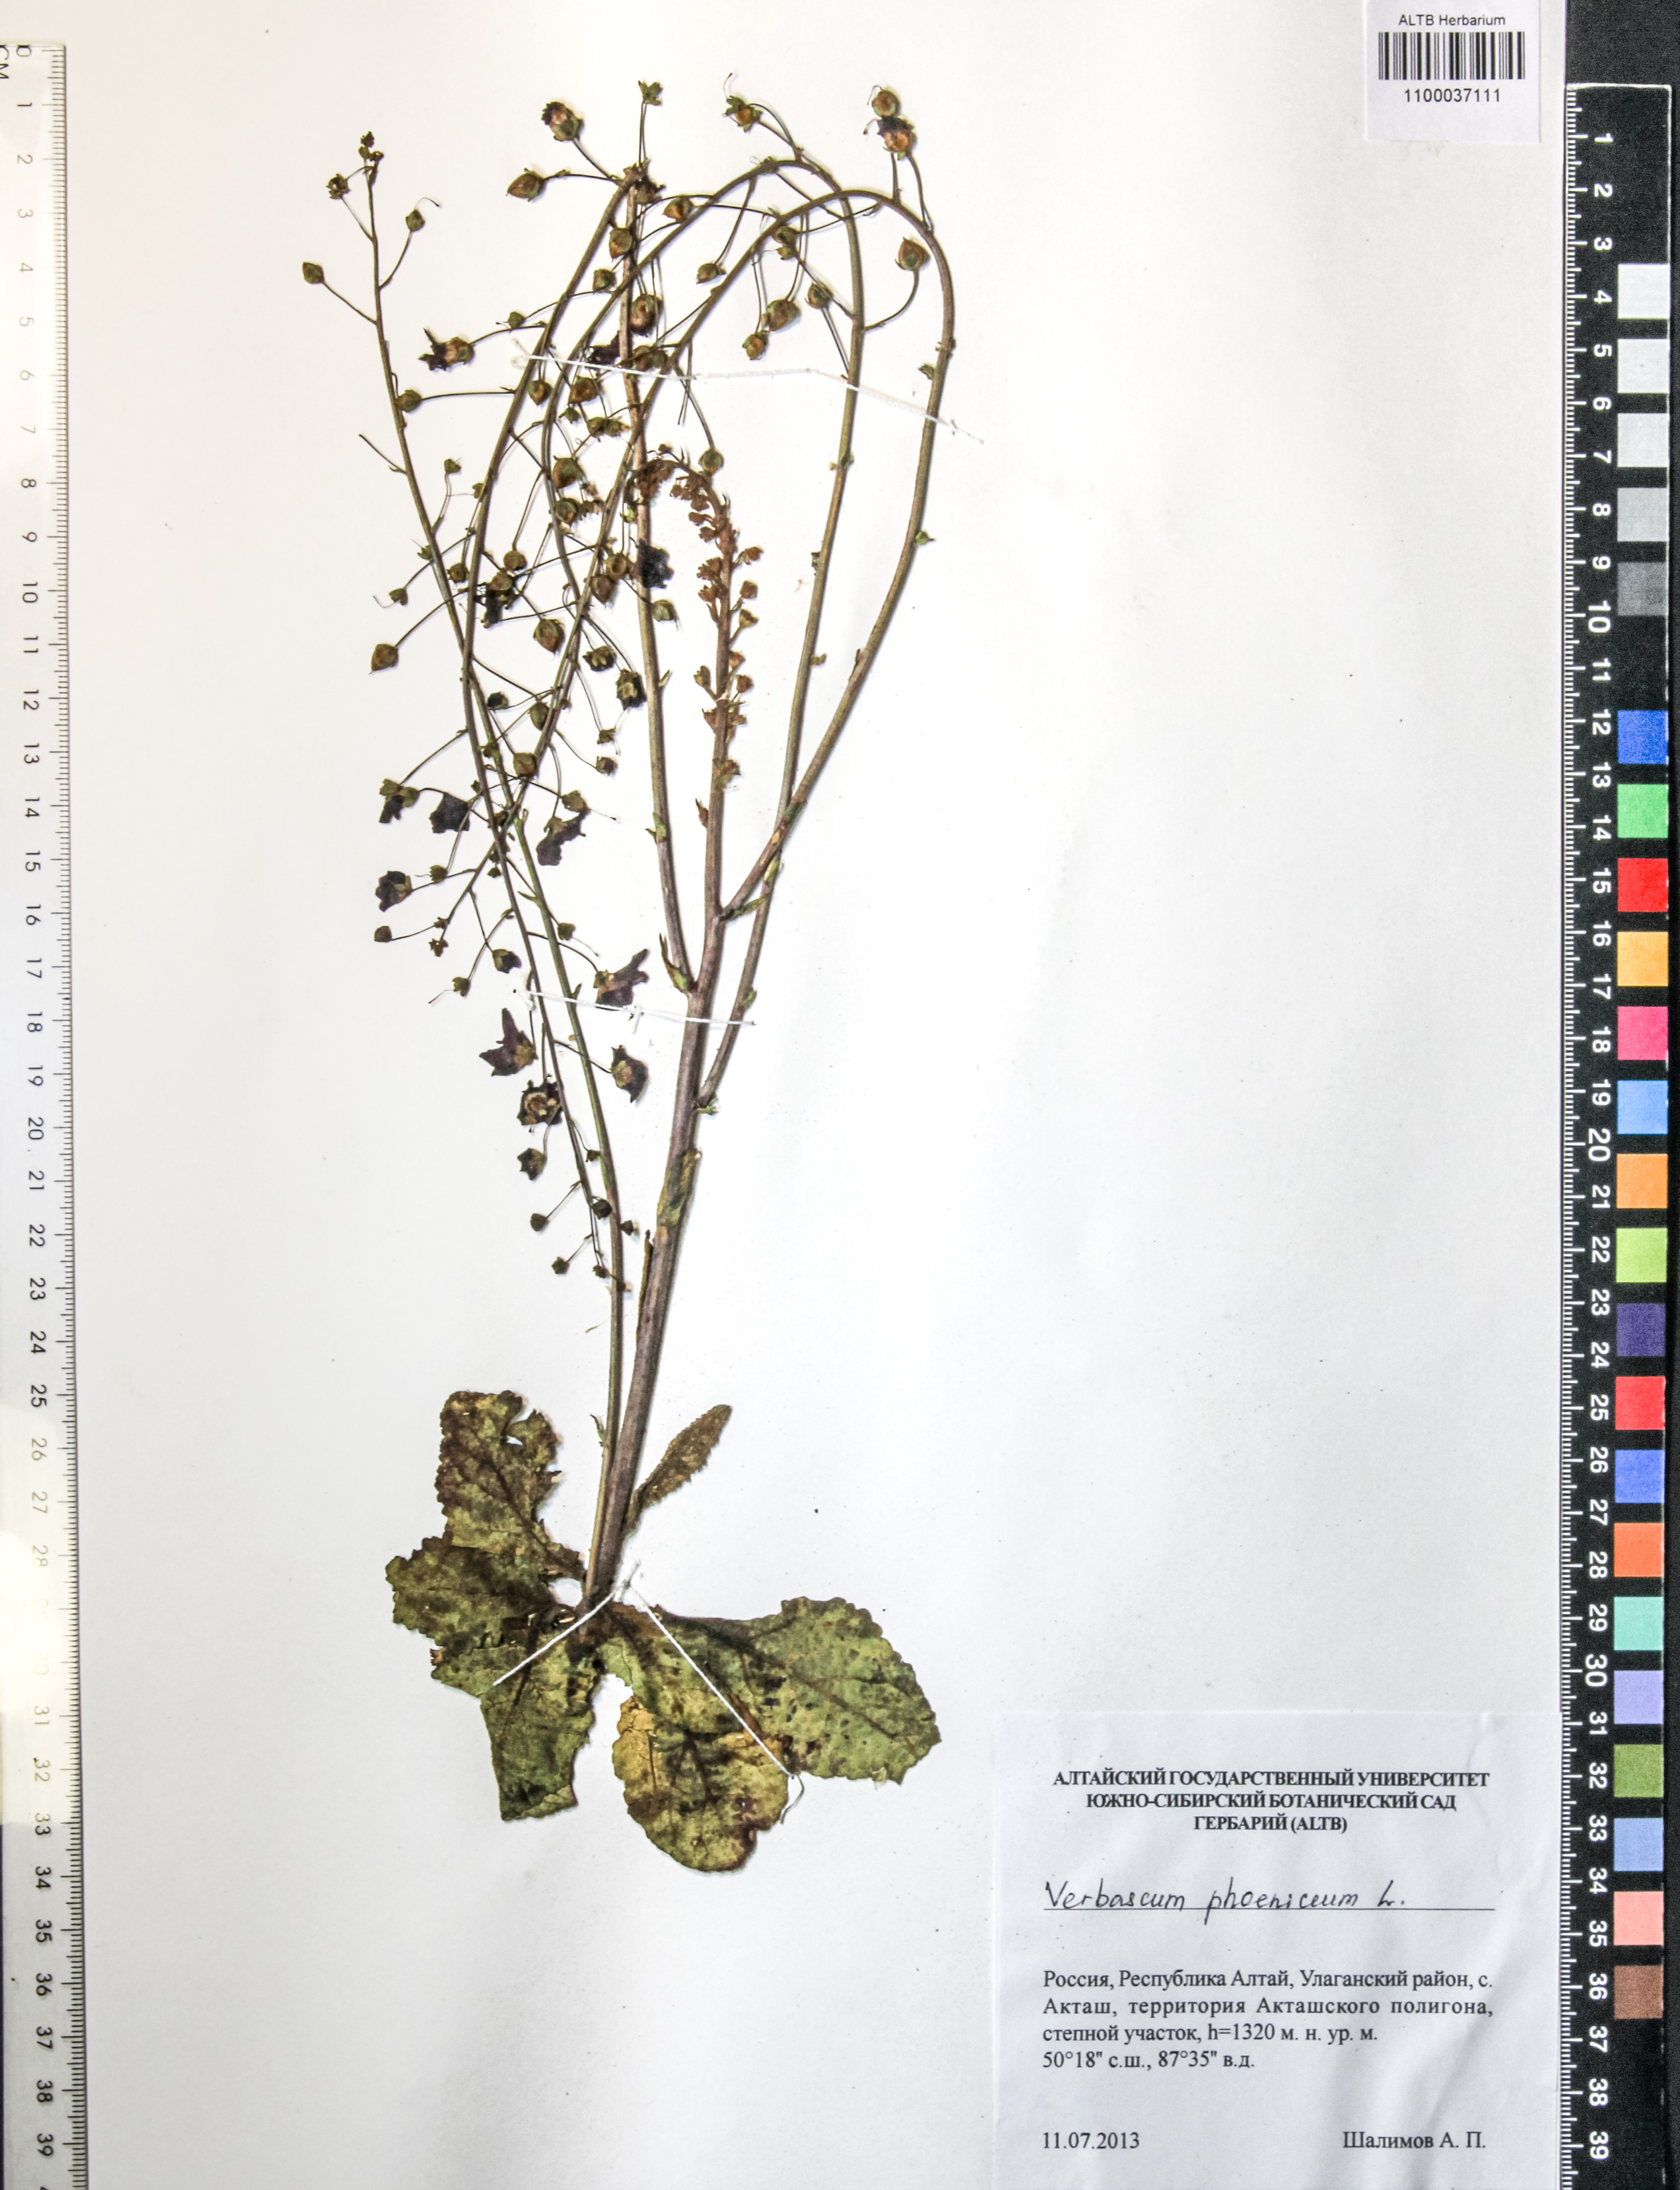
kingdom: Plantae
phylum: Tracheophyta
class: Magnoliopsida
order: Lamiales
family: Scrophulariaceae
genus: Verbascum
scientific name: Verbascum phoeniceum
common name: Purple mullein
